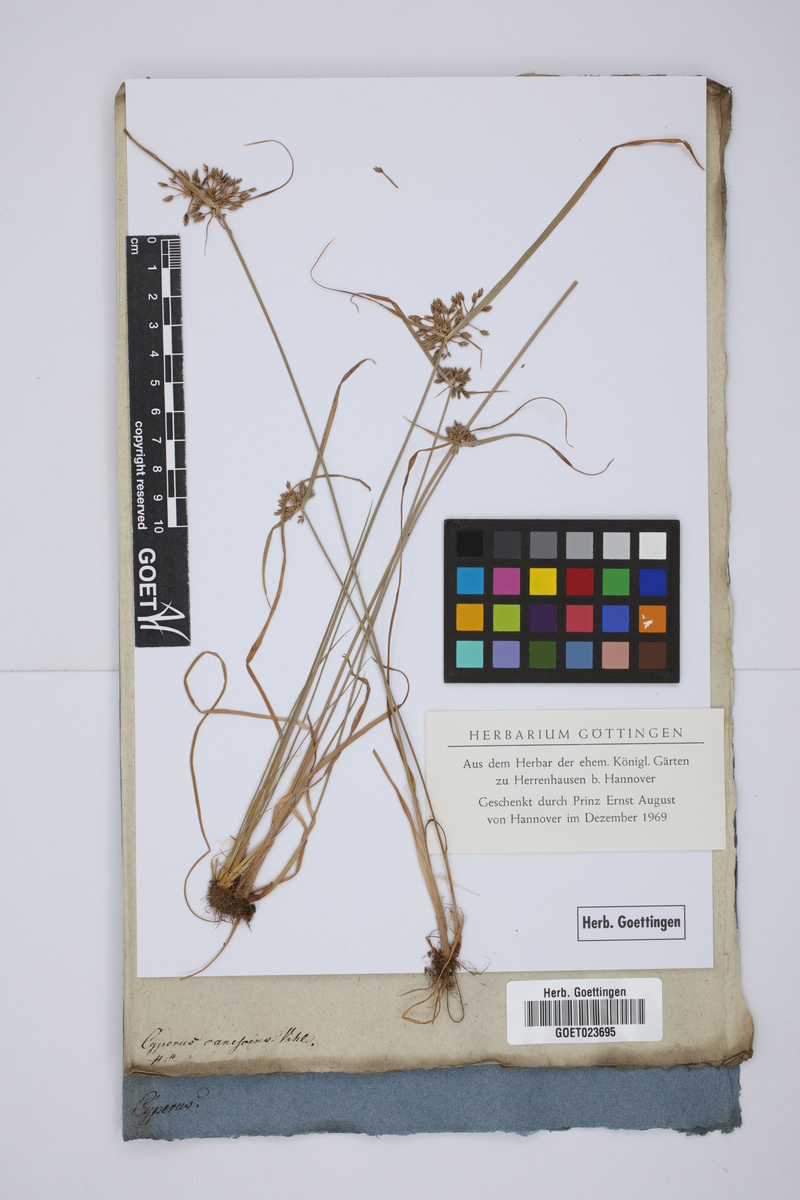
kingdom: Plantae
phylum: Tracheophyta
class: Liliopsida
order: Poales
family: Cyperaceae
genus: Cyperus
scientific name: Cyperus javanicus
